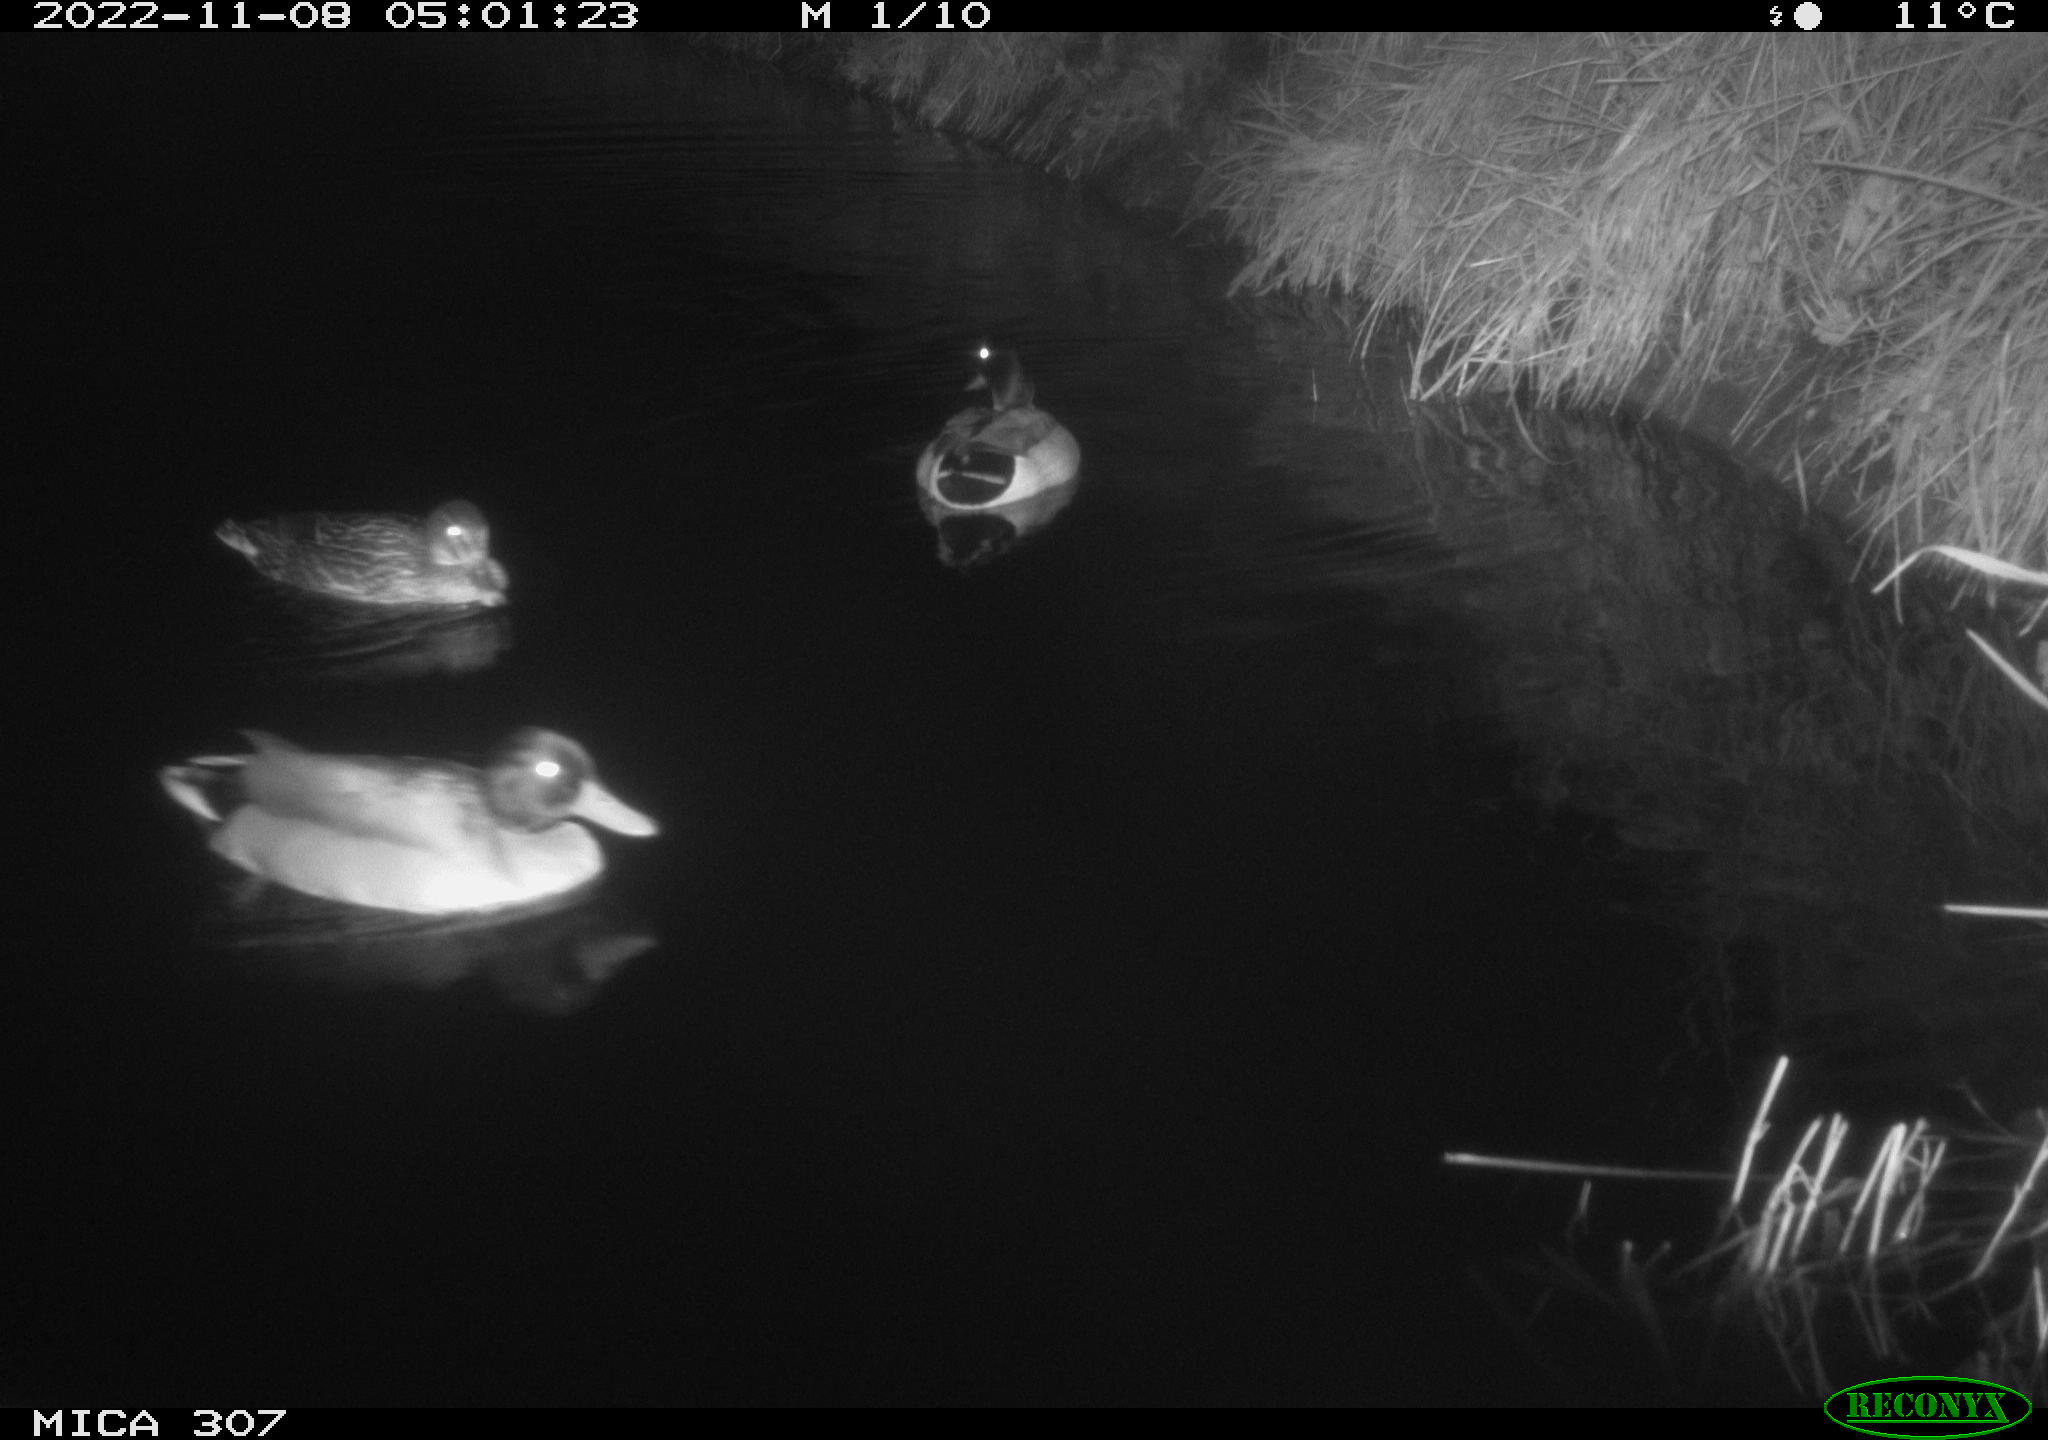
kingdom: Animalia
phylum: Chordata
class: Aves
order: Anseriformes
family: Anatidae
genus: Anas
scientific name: Anas
